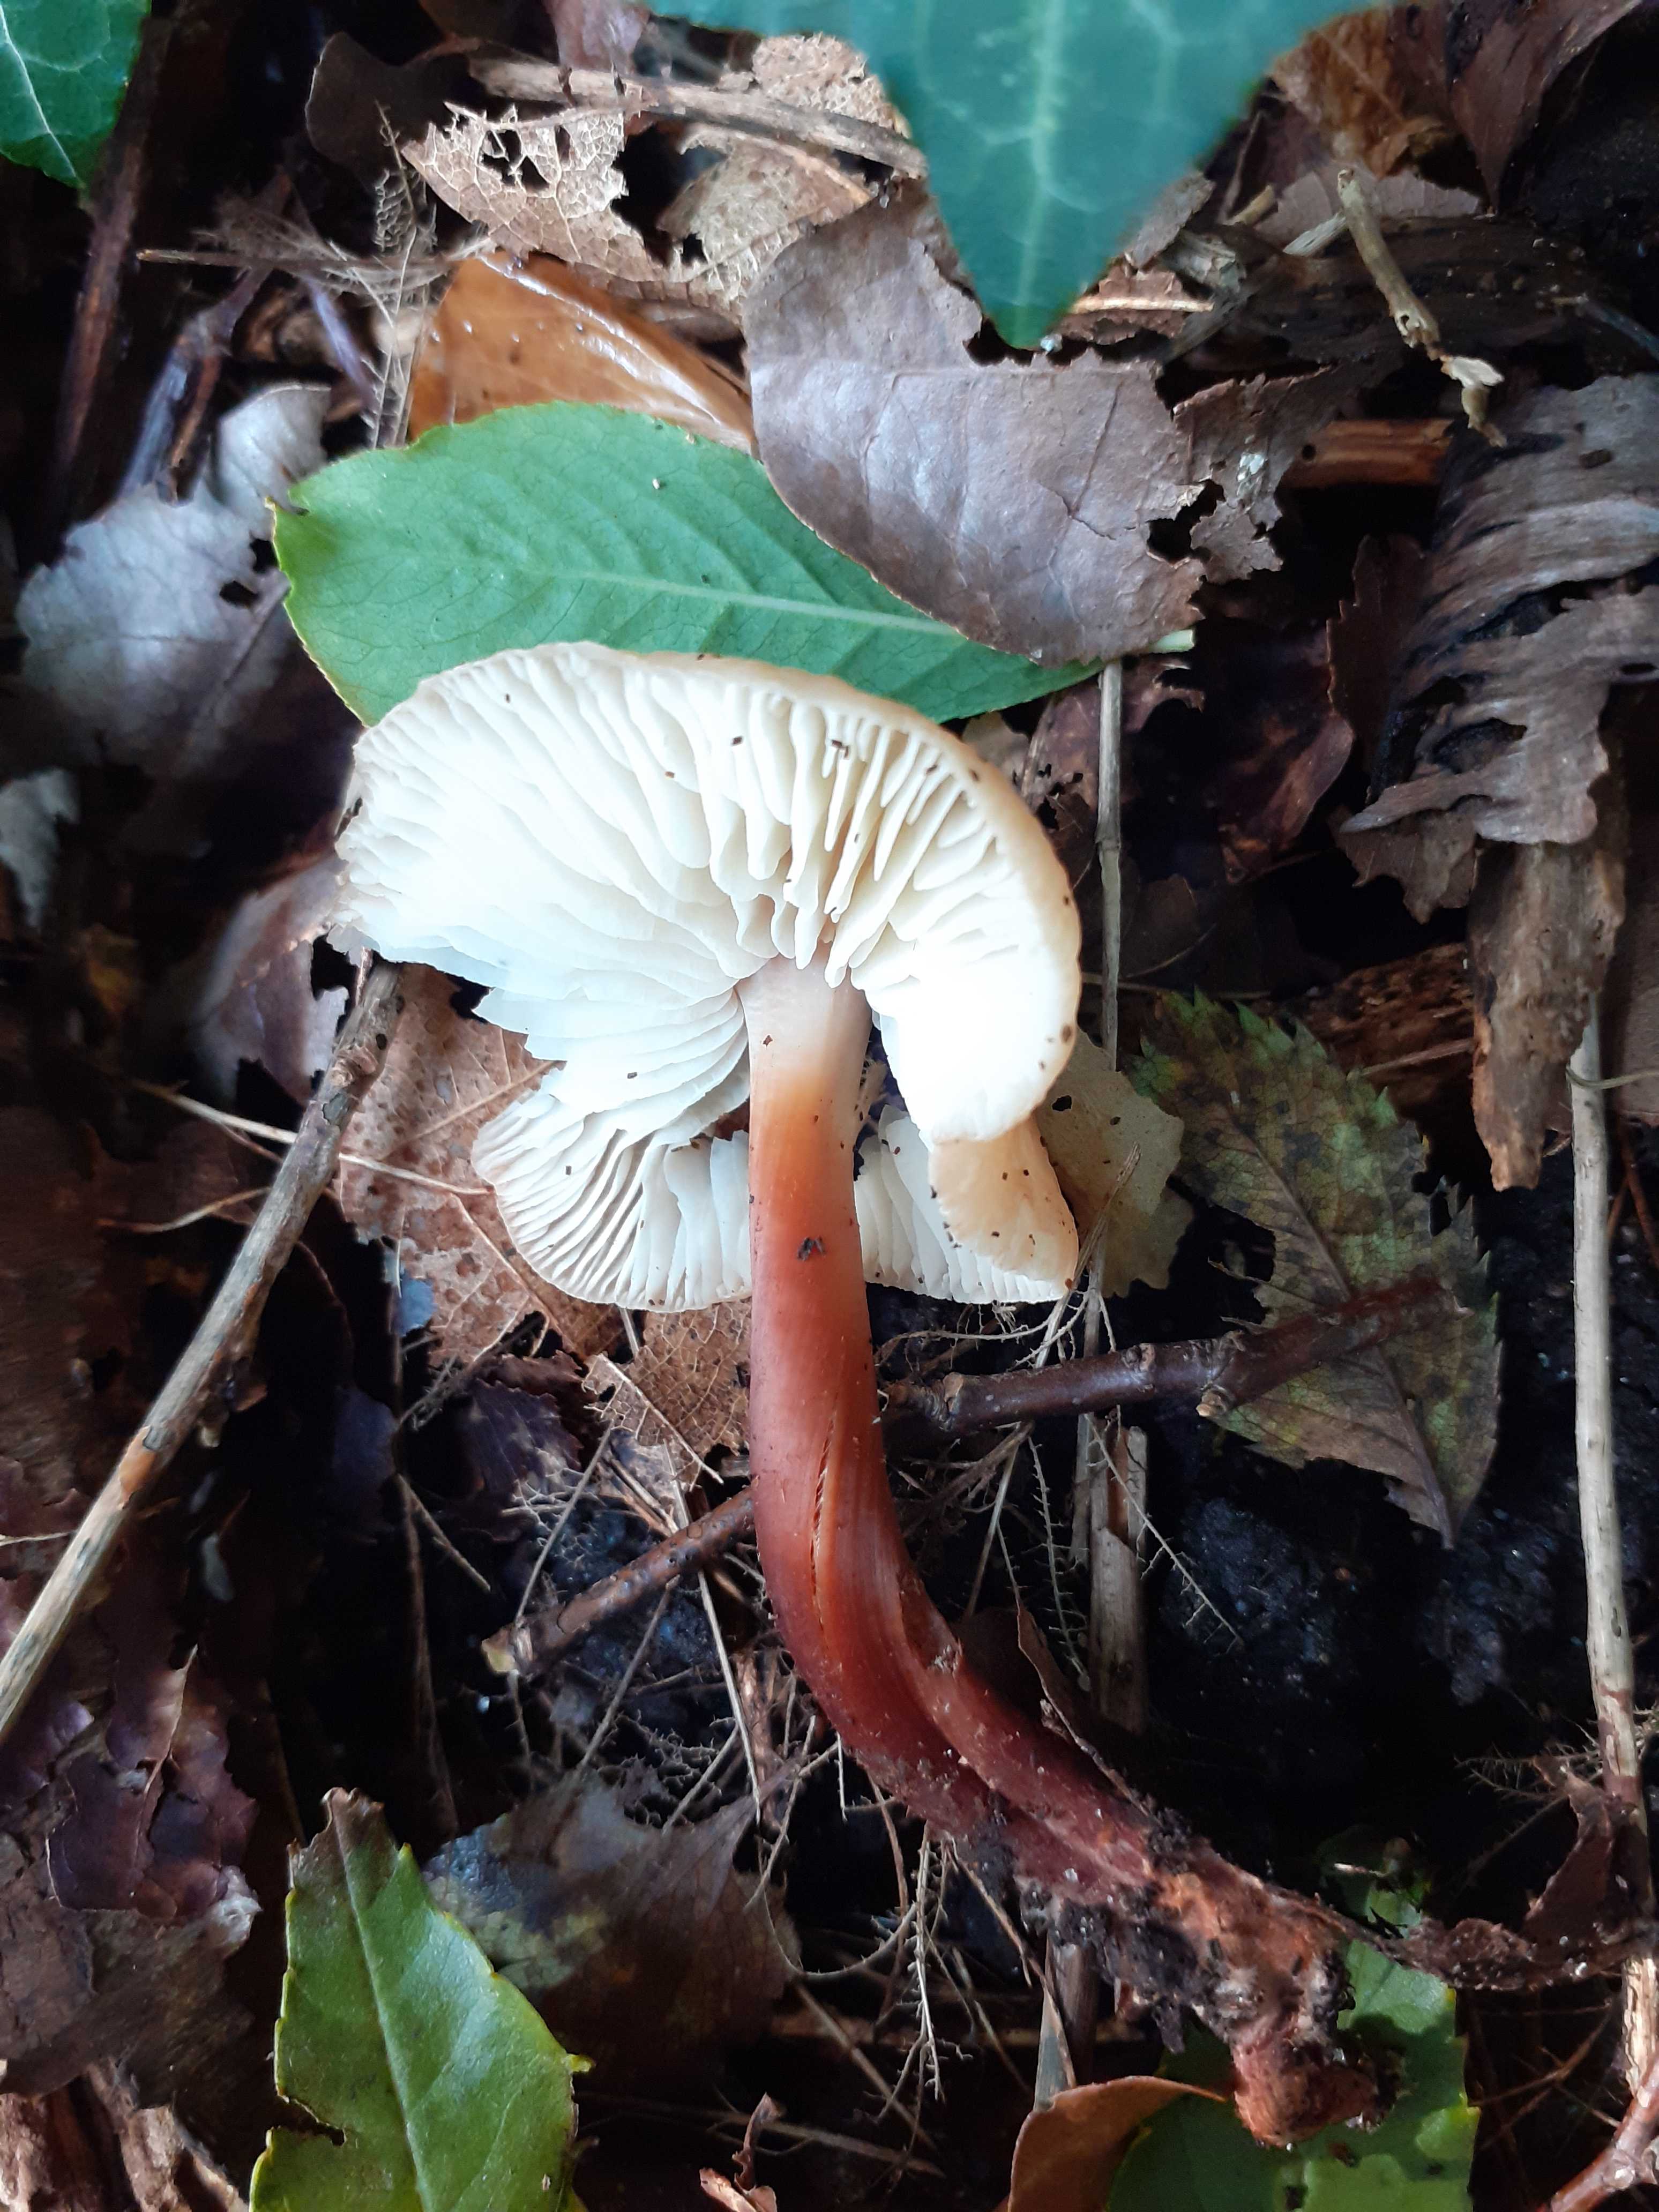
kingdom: Fungi
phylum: Basidiomycota
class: Agaricomycetes
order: Agaricales
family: Omphalotaceae
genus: Gymnopus
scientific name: Gymnopus erythropus
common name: rødstokket fladhat
